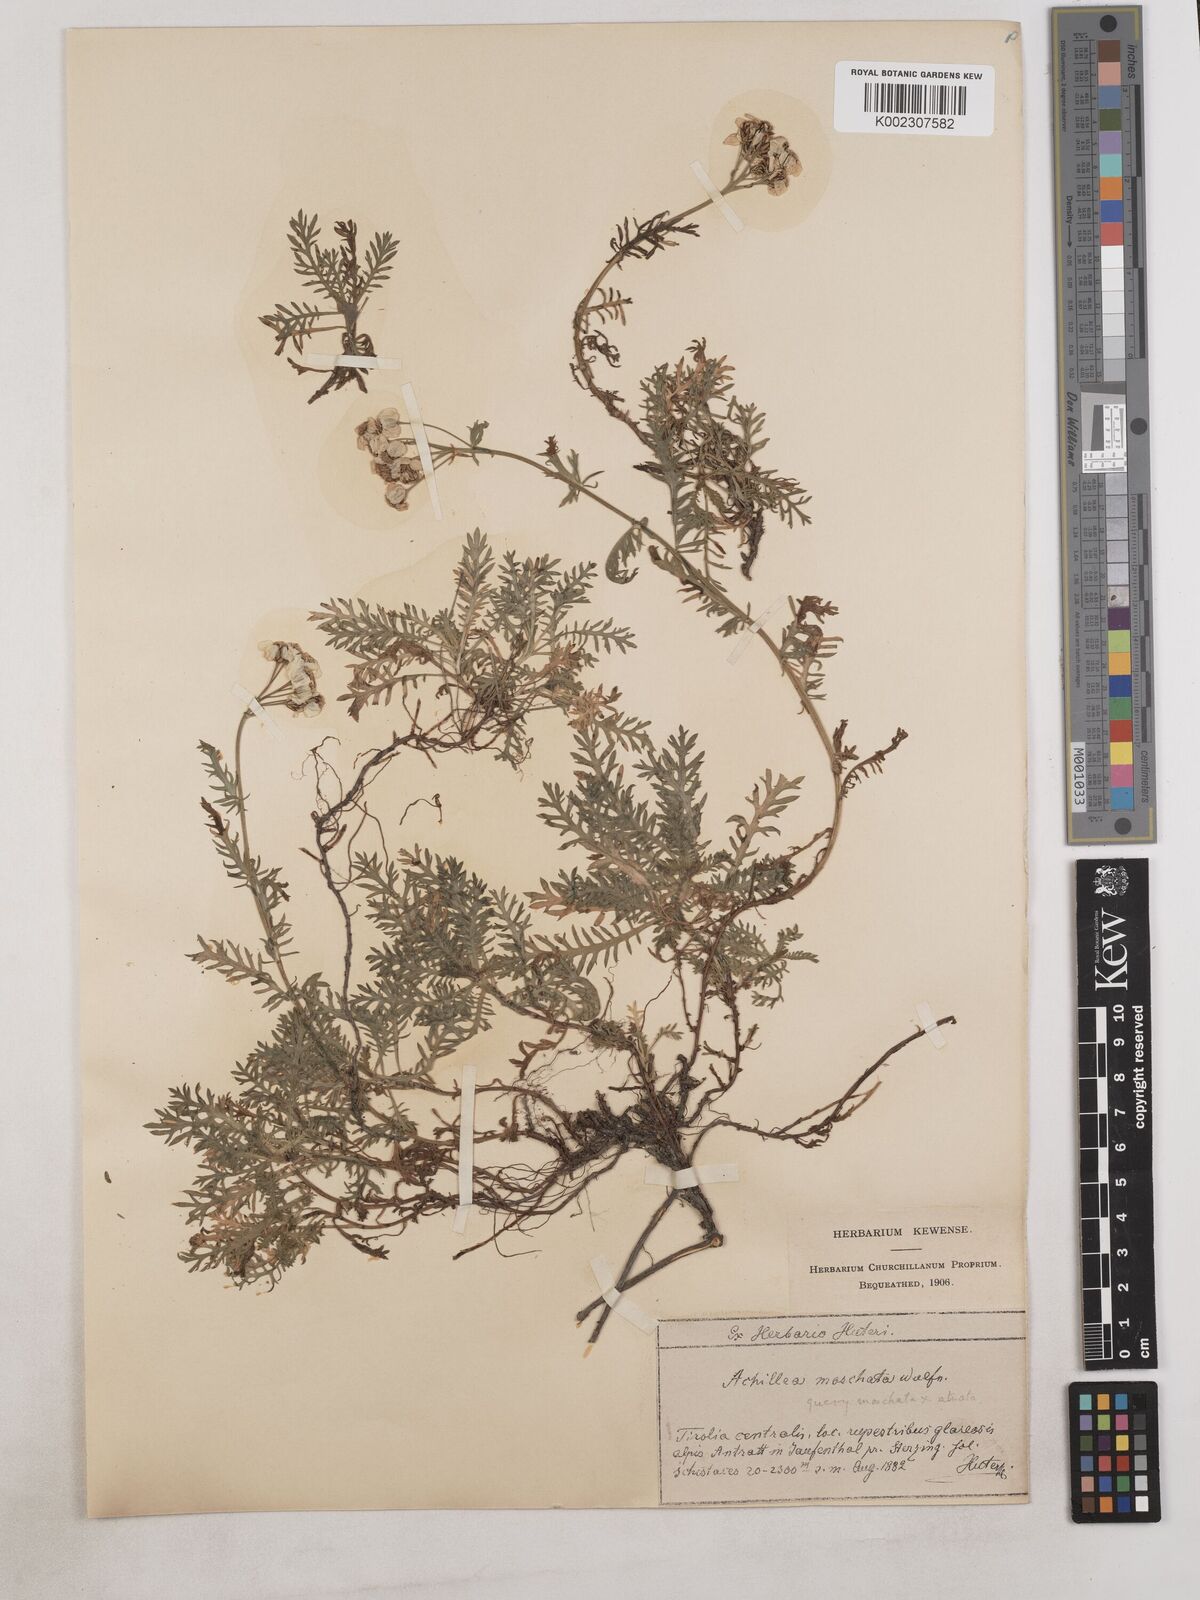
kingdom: Plantae
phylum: Tracheophyta
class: Magnoliopsida
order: Asterales
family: Asteraceae
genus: Achillea
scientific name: Achillea atrata
